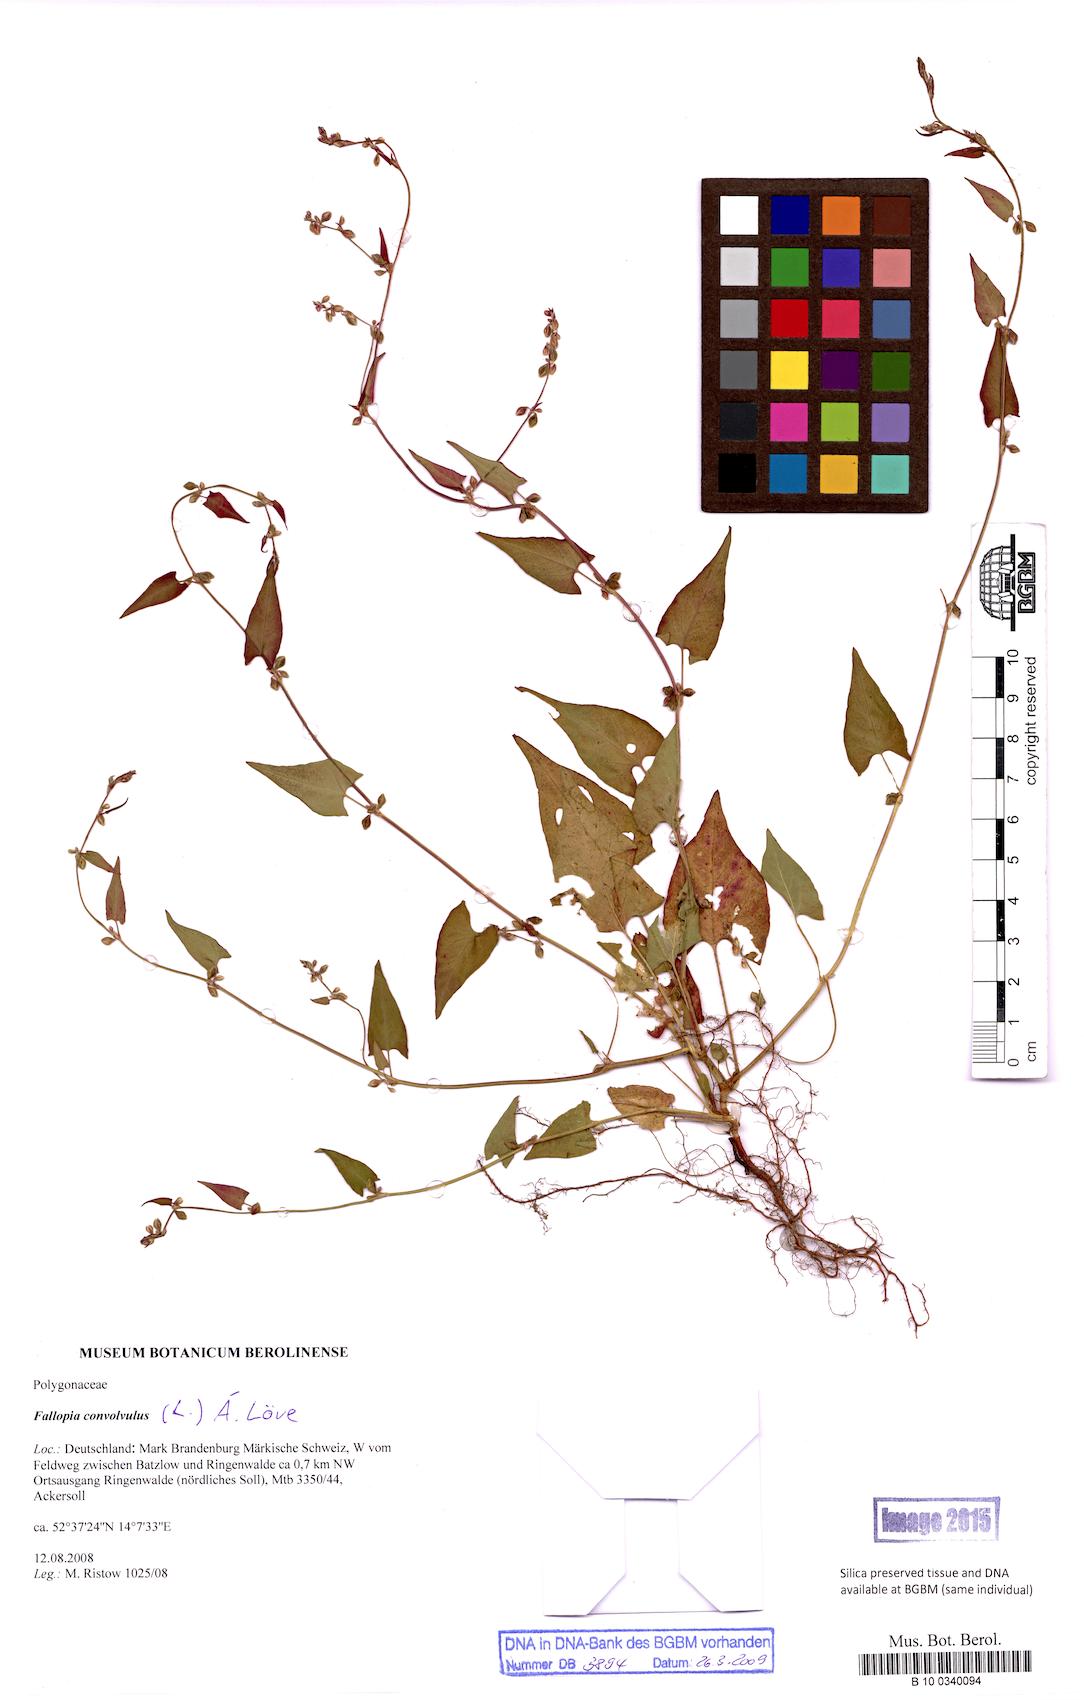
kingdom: Plantae
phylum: Tracheophyta
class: Magnoliopsida
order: Caryophyllales
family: Polygonaceae
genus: Fallopia
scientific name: Fallopia convolvulus
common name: Black bindweed
